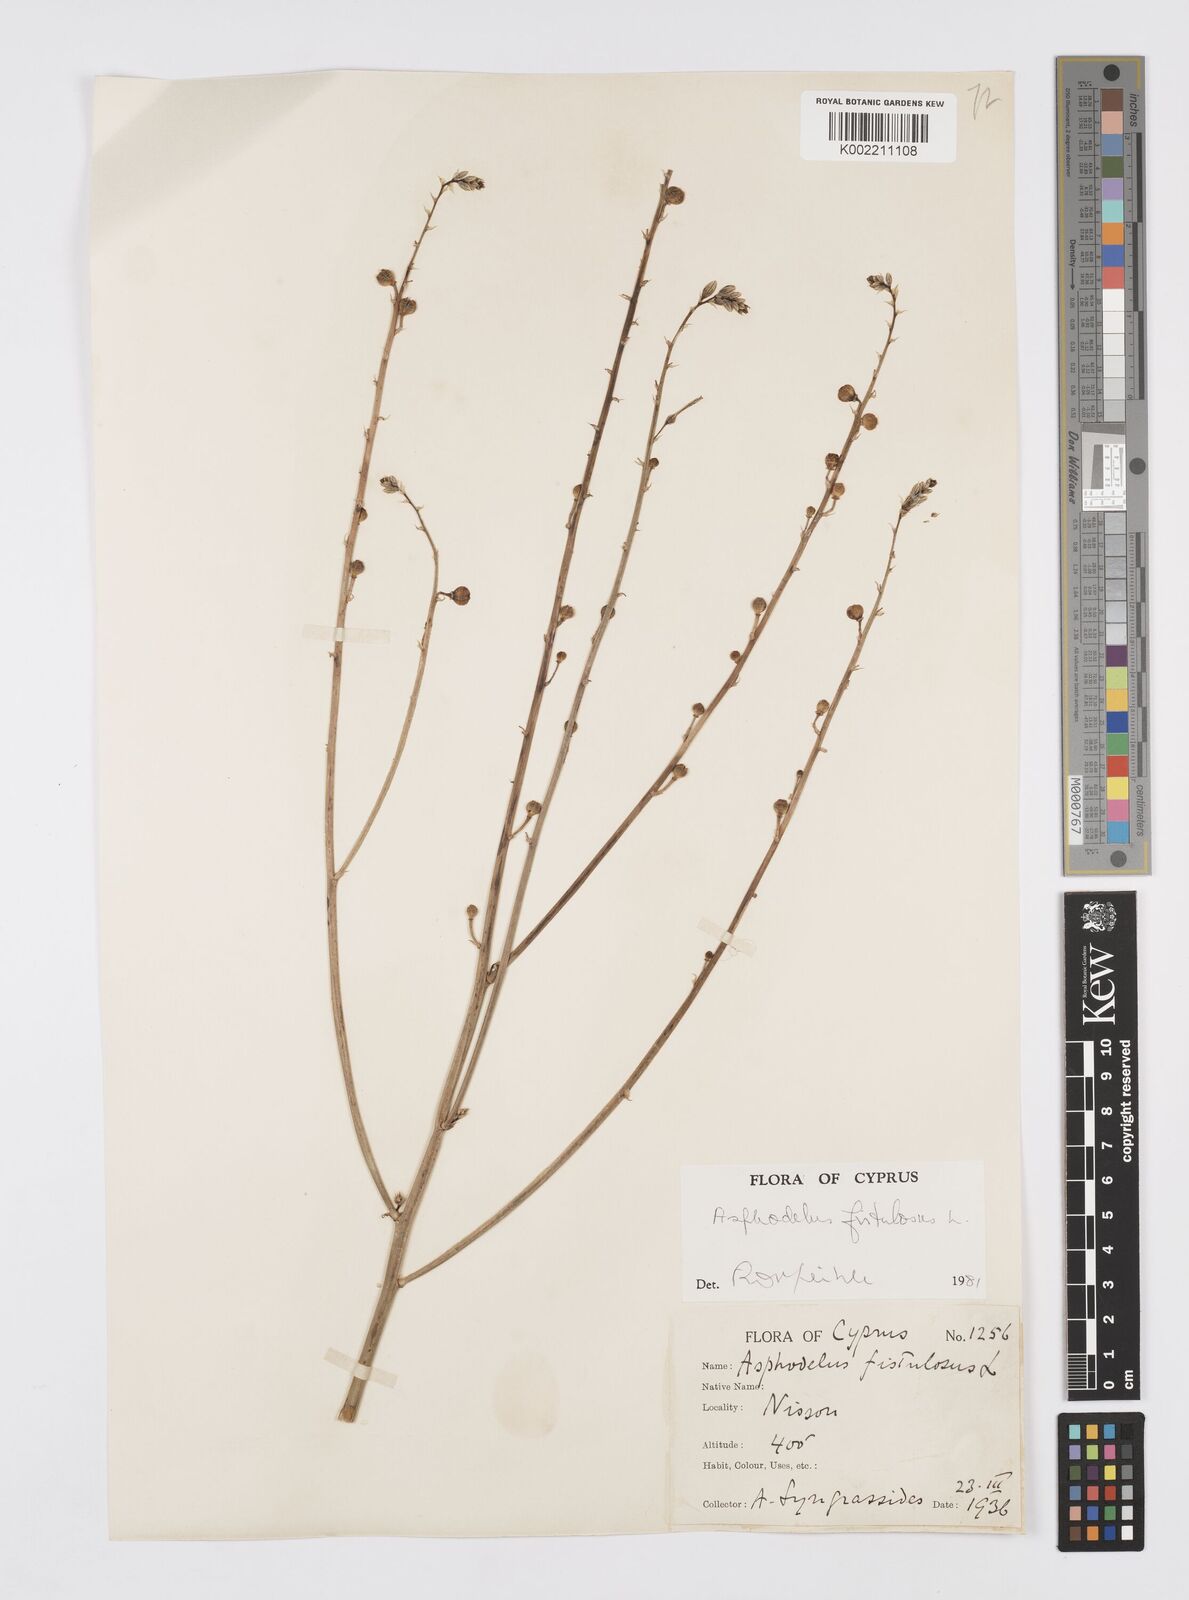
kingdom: Plantae
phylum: Tracheophyta
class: Liliopsida
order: Asparagales
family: Asphodelaceae
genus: Asphodelus
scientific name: Asphodelus fistulosus
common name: Onionweed
